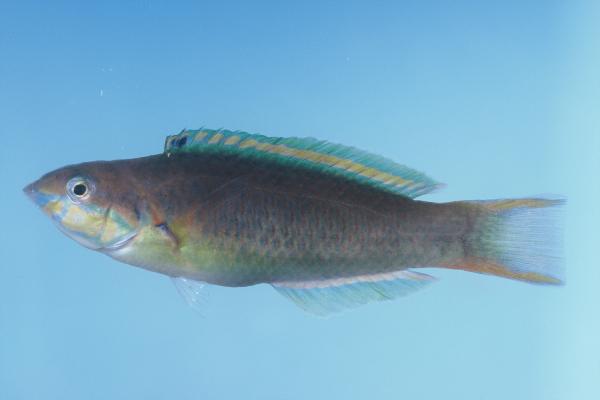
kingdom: Animalia
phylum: Chordata
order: Perciformes
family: Labridae
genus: Thalassoma
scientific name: Thalassoma genivittatum
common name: Red-cheek wrasse
